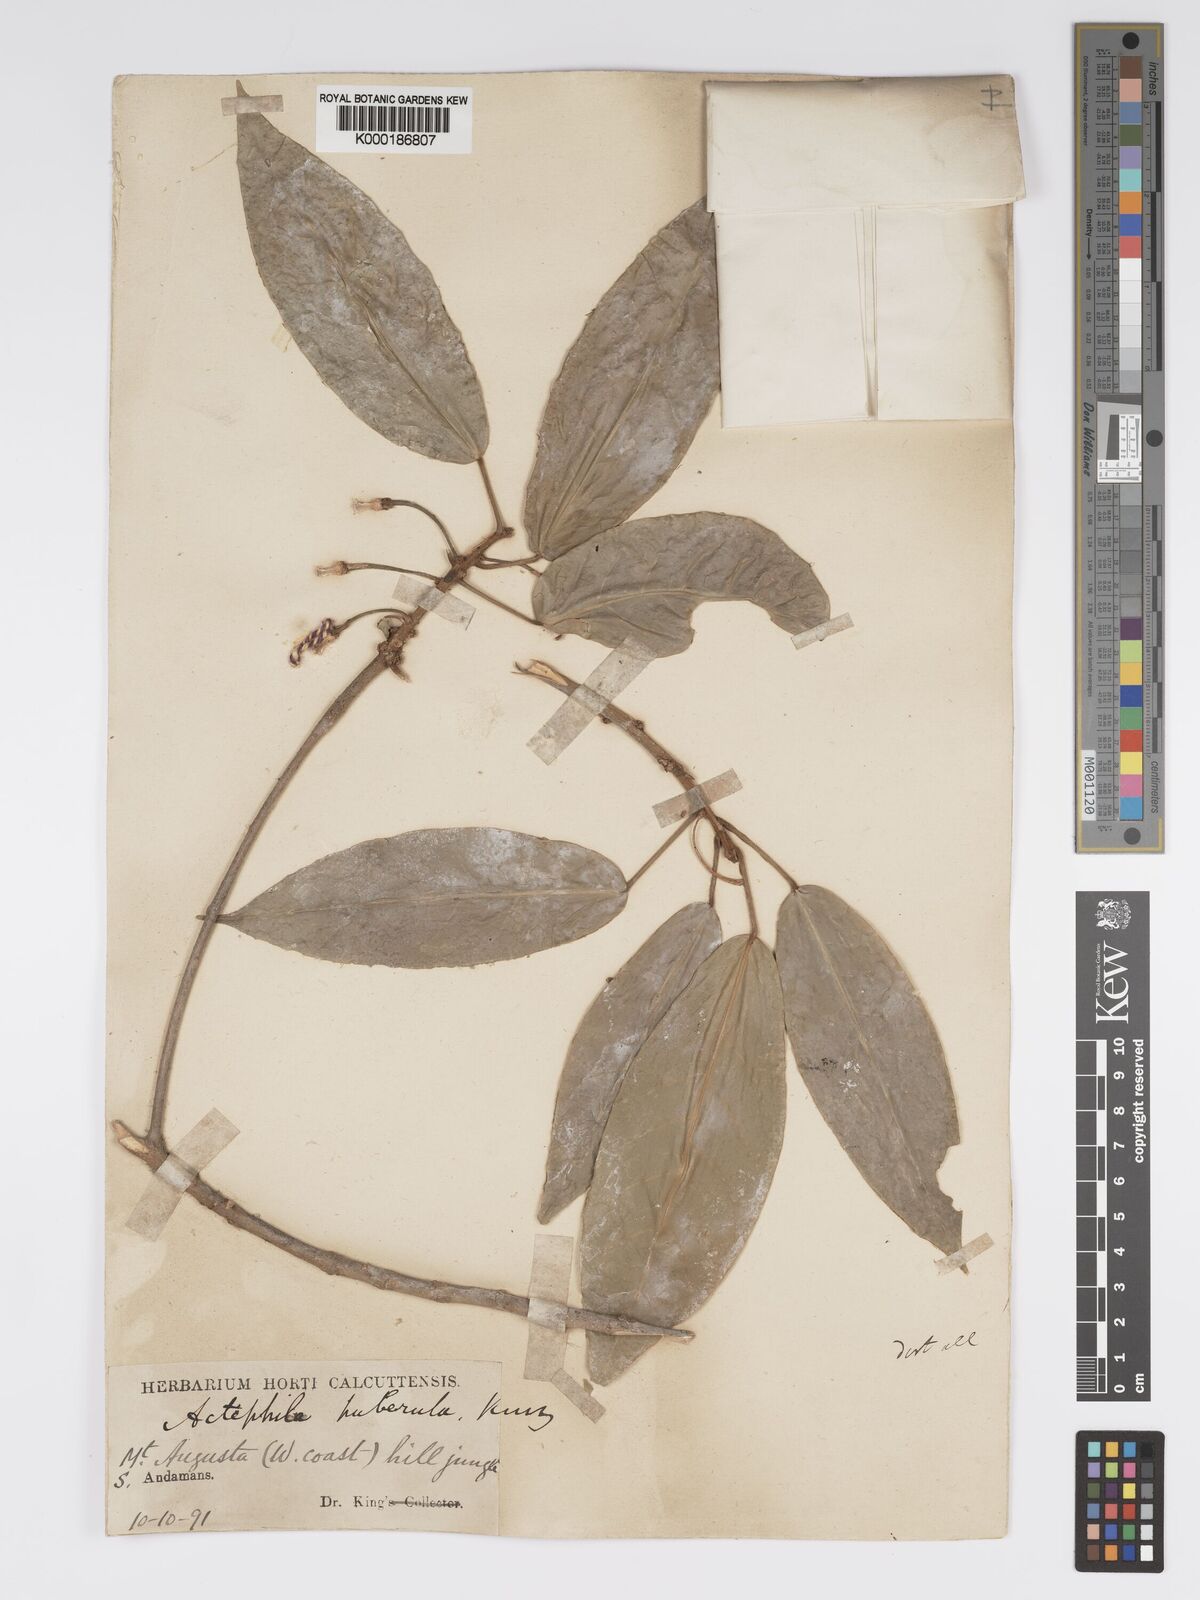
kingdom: Plantae
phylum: Tracheophyta
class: Magnoliopsida
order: Malpighiales
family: Phyllanthaceae
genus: Actephila
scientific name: Actephila excelsa
